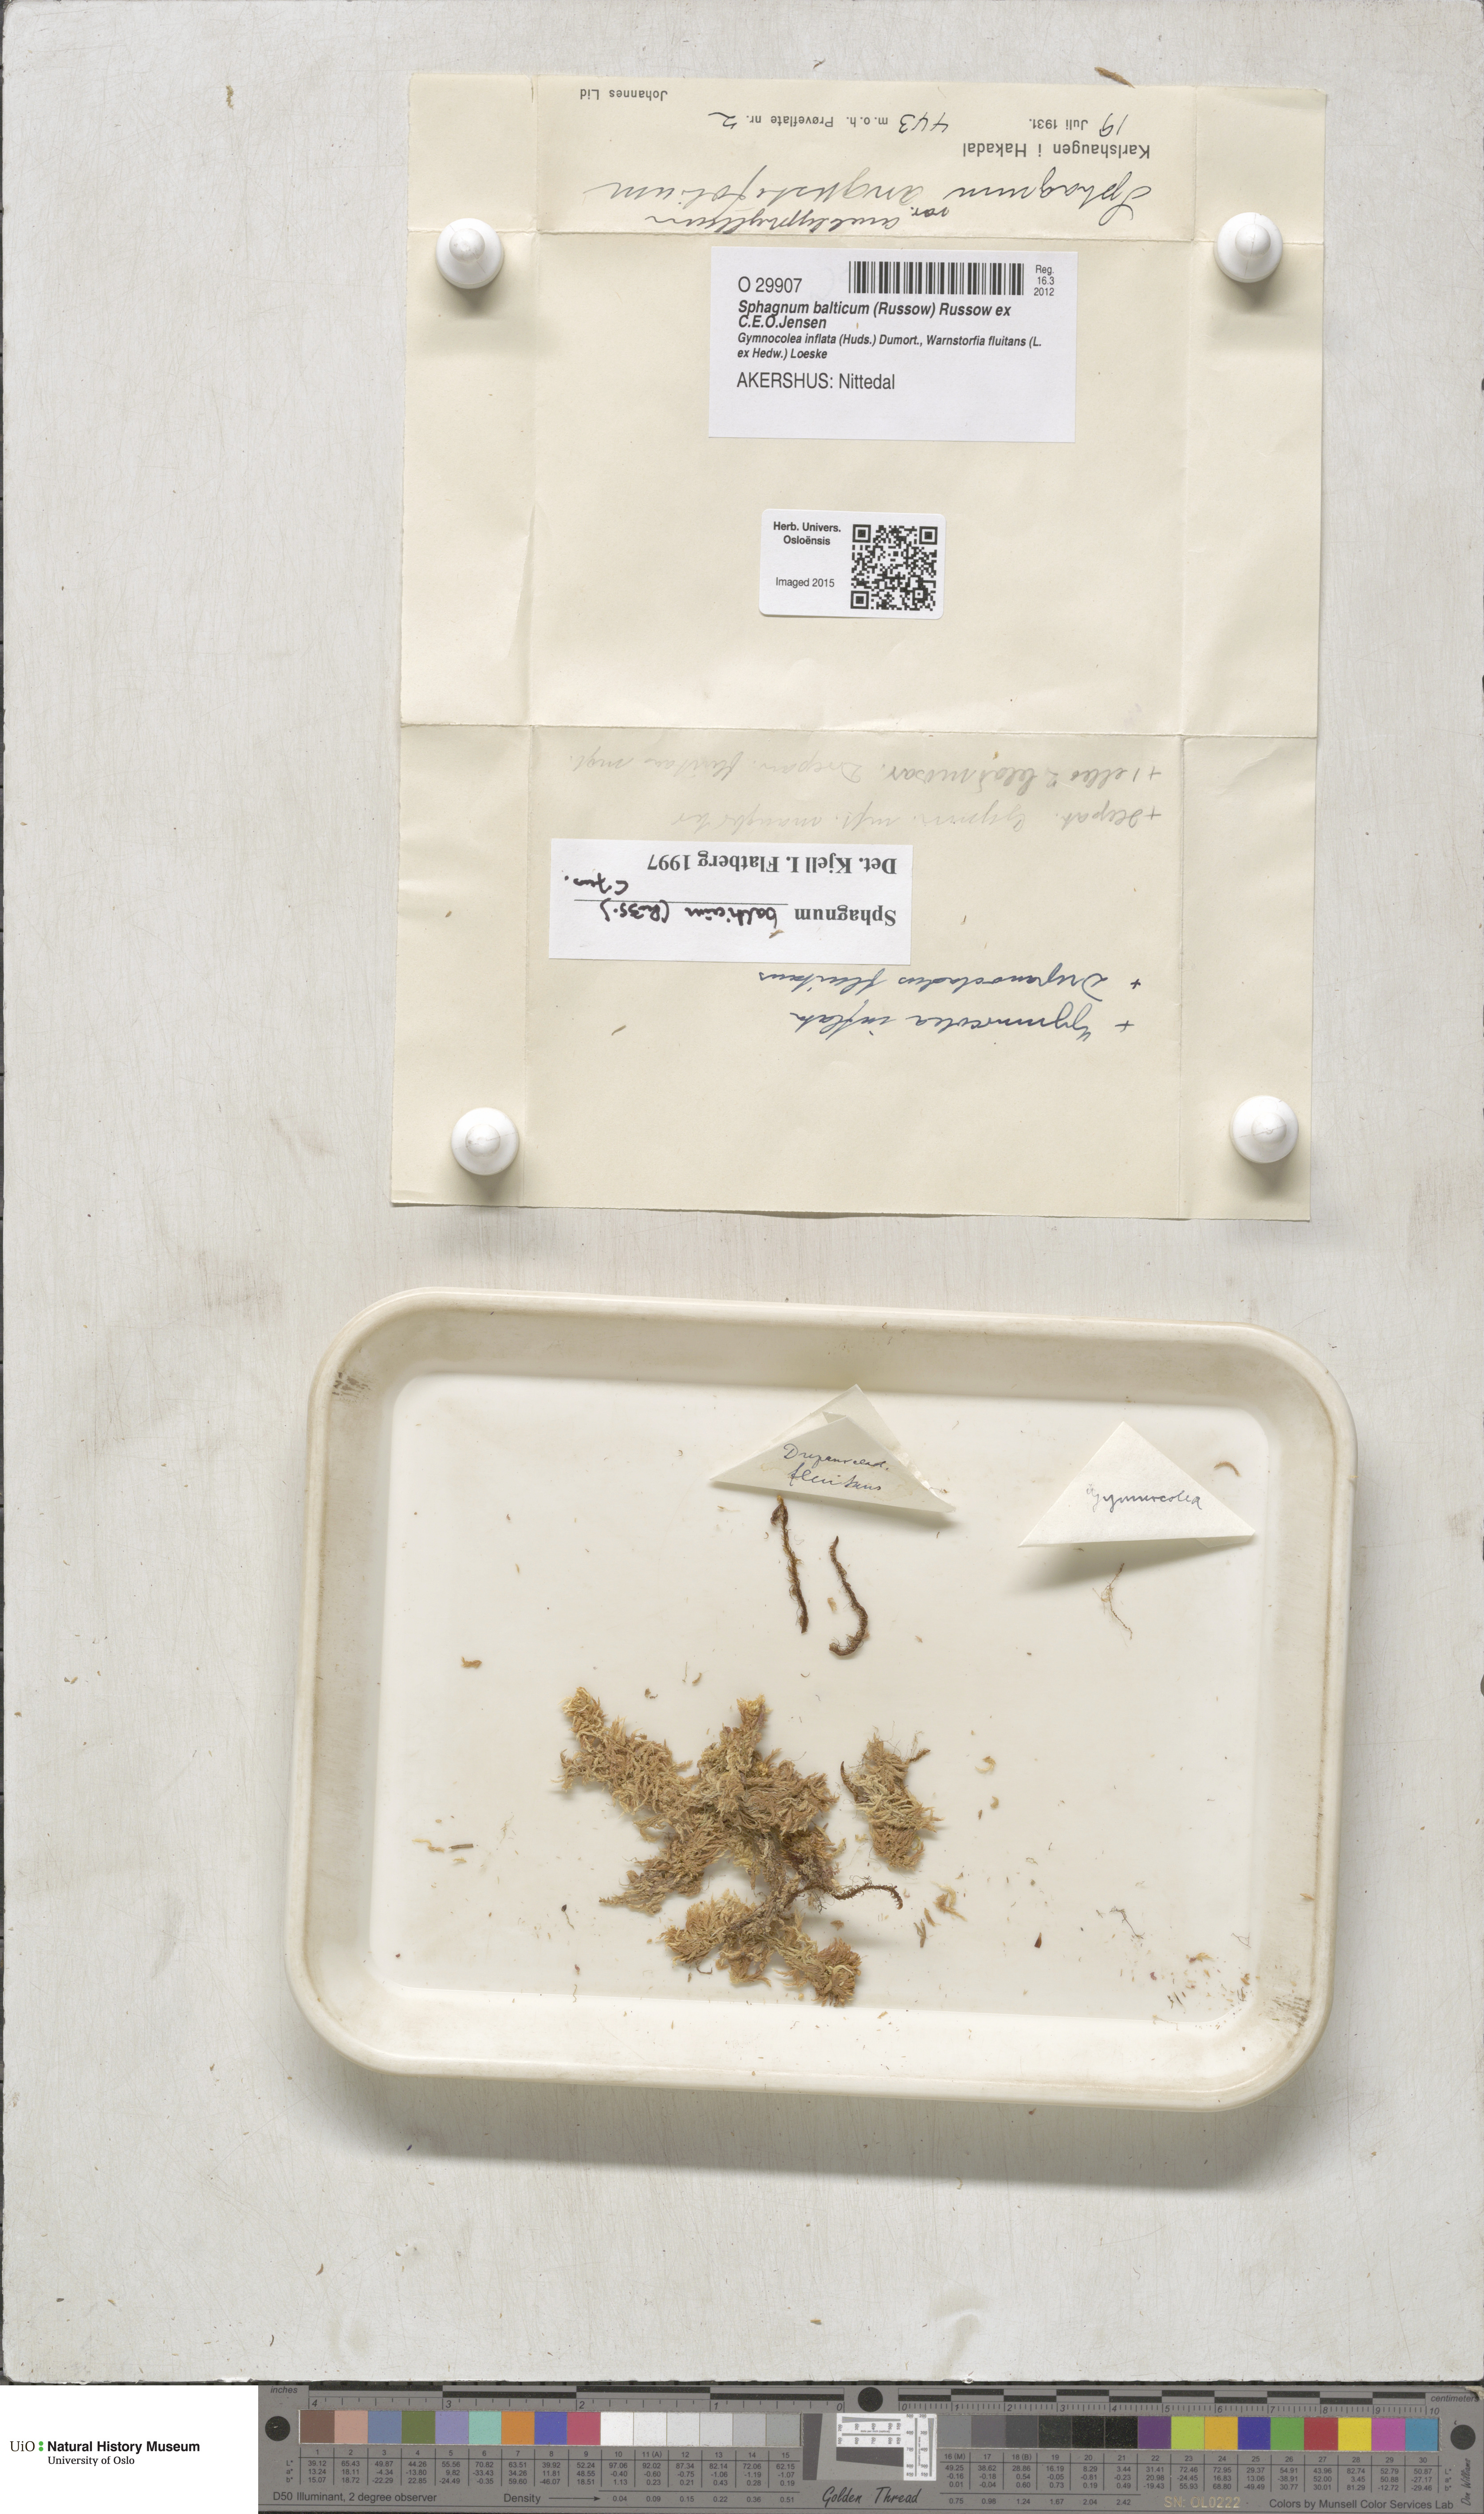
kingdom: Plantae
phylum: Bryophyta
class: Sphagnopsida
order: Sphagnales
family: Sphagnaceae
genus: Sphagnum
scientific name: Sphagnum balticum
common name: Baltic bog-moss
